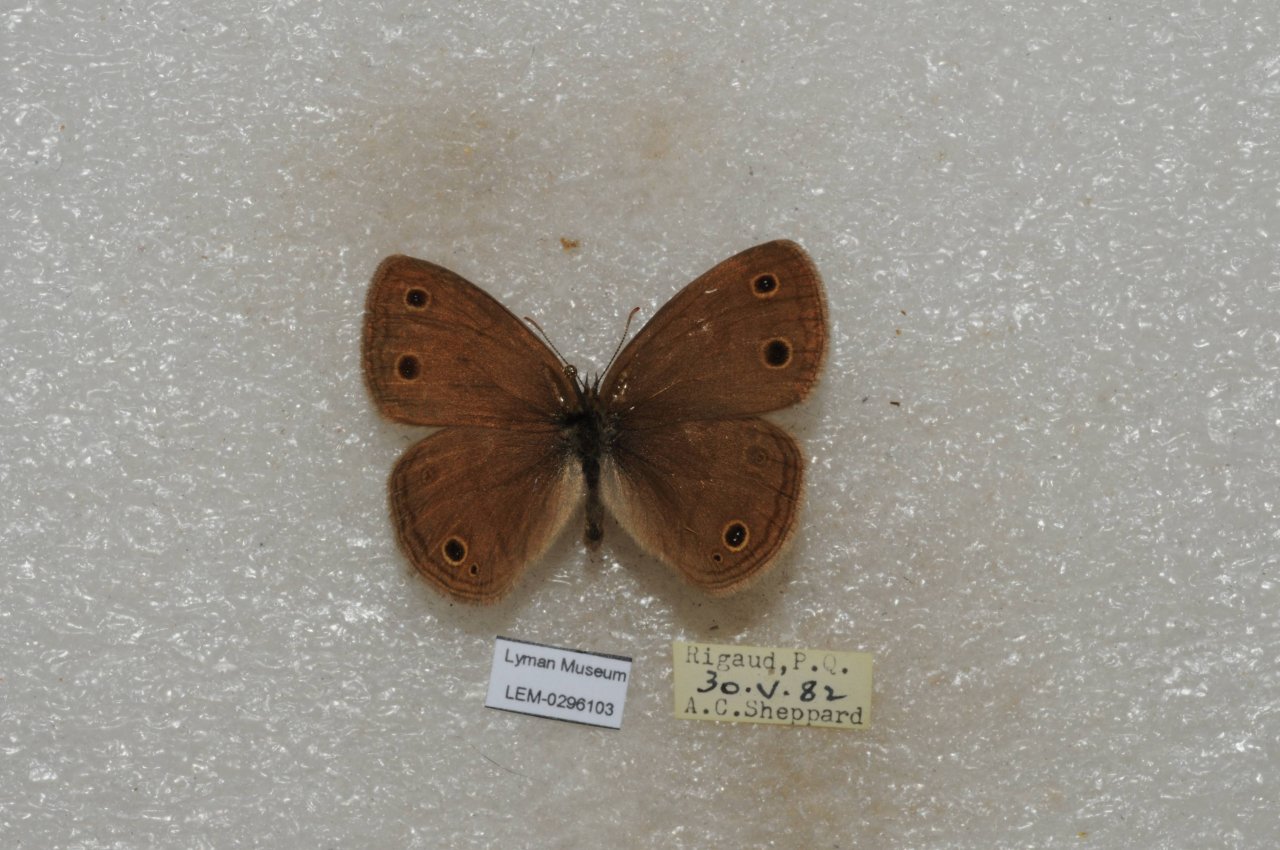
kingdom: Animalia
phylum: Arthropoda
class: Insecta
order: Lepidoptera
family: Nymphalidae
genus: Euptychia
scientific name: Euptychia cymela
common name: Little Wood Satyr
